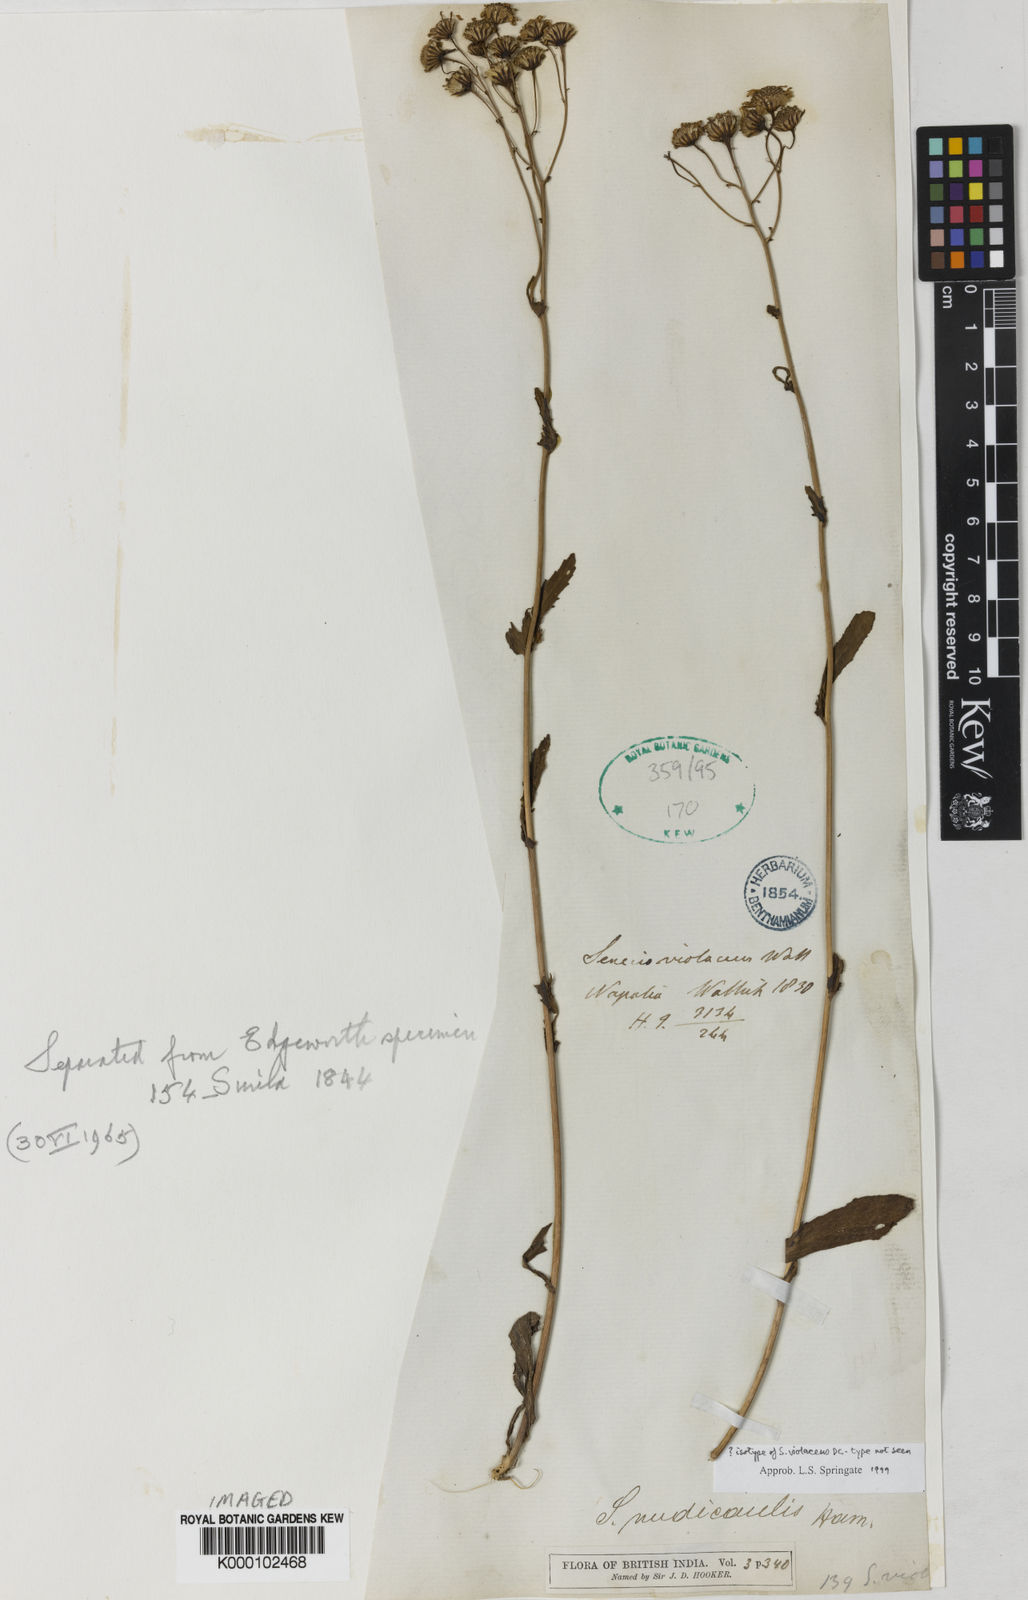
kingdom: Plantae
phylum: Tracheophyta
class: Magnoliopsida
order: Asterales
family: Asteraceae
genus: Jacobaea
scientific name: Jacobaea nudicaulis
